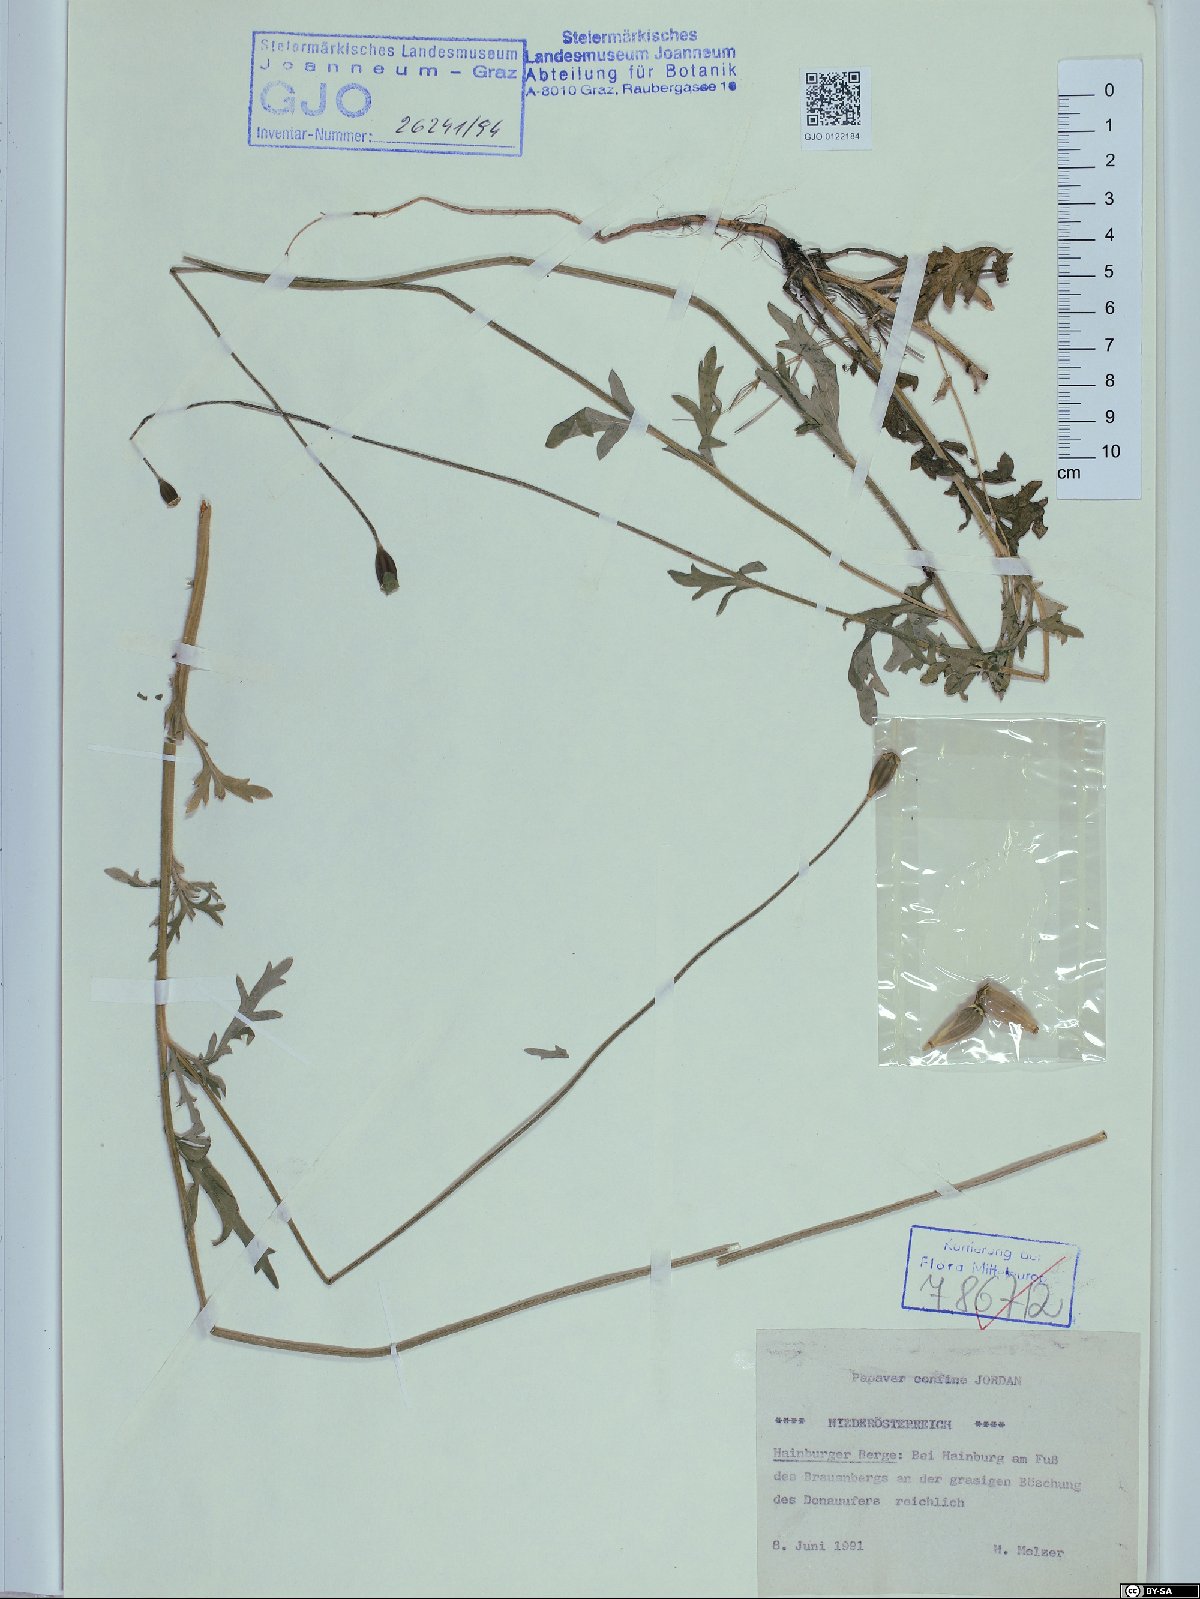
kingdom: Plantae
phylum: Tracheophyta
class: Magnoliopsida
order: Ranunculales
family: Papaveraceae
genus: Papaver
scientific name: Papaver confine
